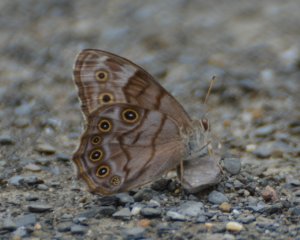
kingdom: Animalia
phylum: Arthropoda
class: Insecta
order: Lepidoptera
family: Nymphalidae
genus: Lethe
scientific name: Lethe anthedon
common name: Northern Pearly-Eye
